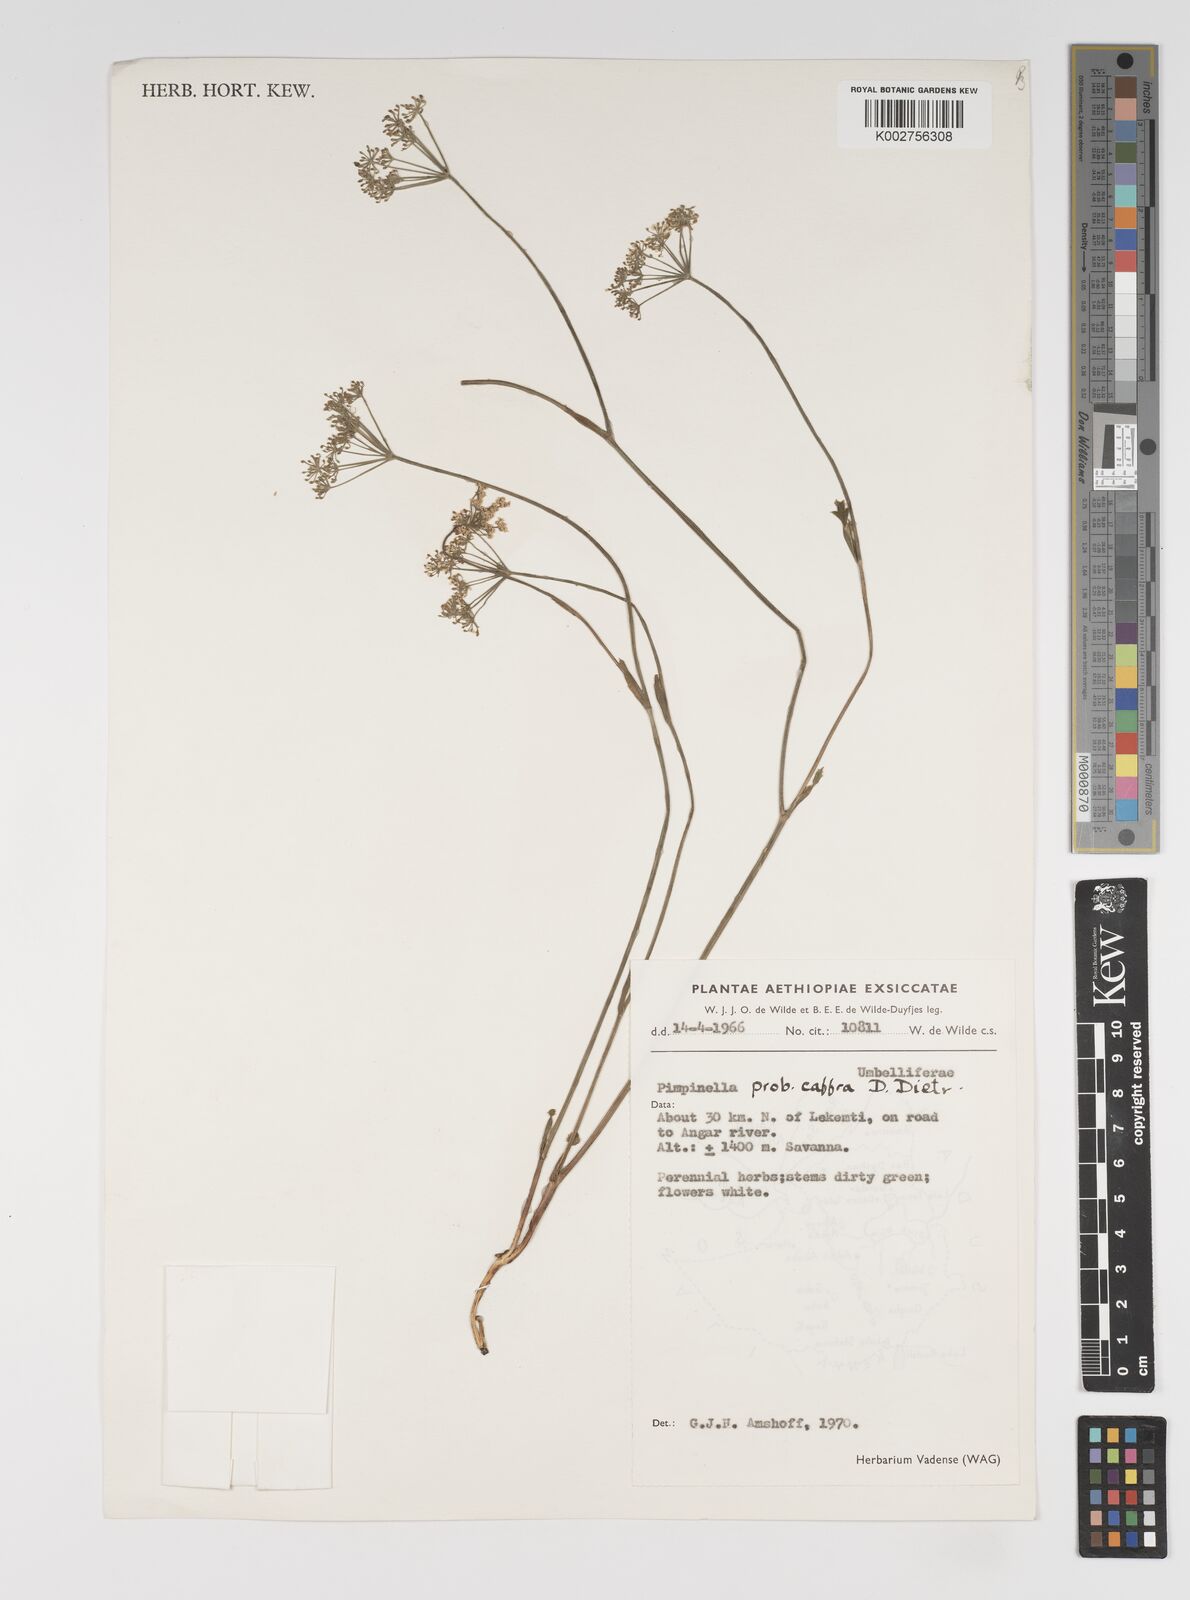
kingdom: Plantae
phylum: Tracheophyta
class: Magnoliopsida
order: Apiales
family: Apiaceae
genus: Pimpinella
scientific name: Pimpinella peregrina
